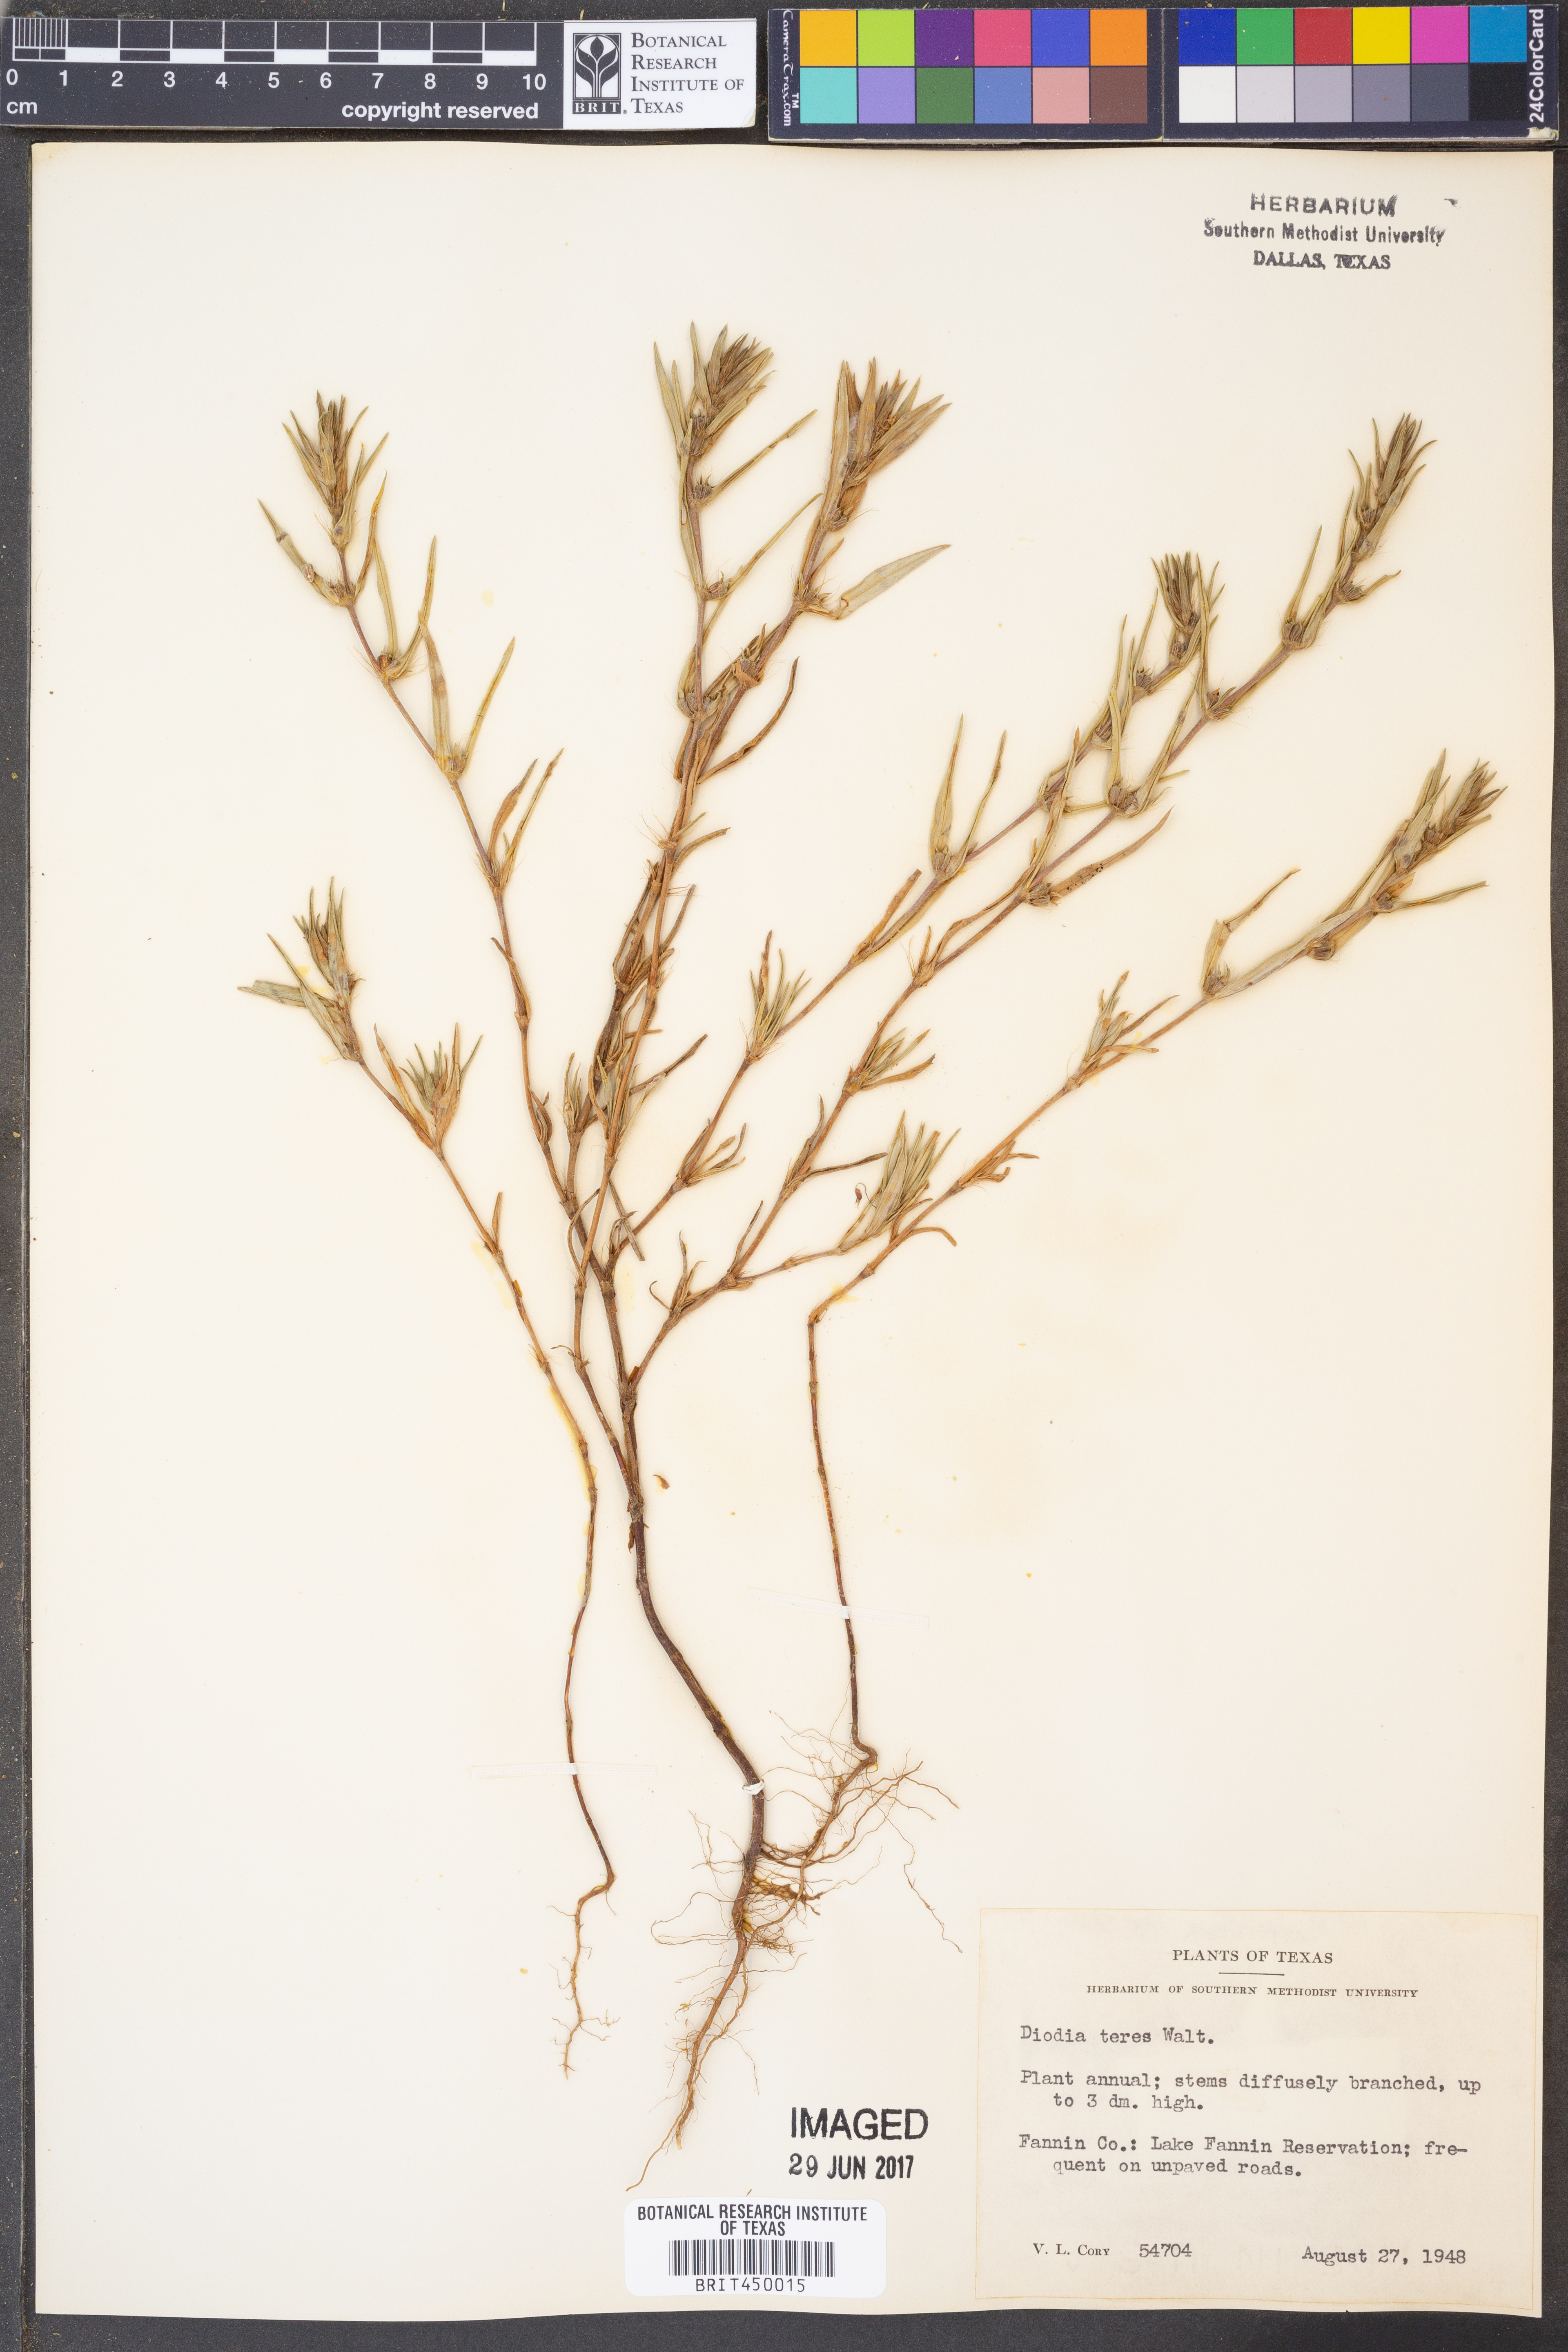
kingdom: Plantae
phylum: Tracheophyta
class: Magnoliopsida
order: Gentianales
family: Rubiaceae
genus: Hexasepalum
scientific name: Hexasepalum teres
